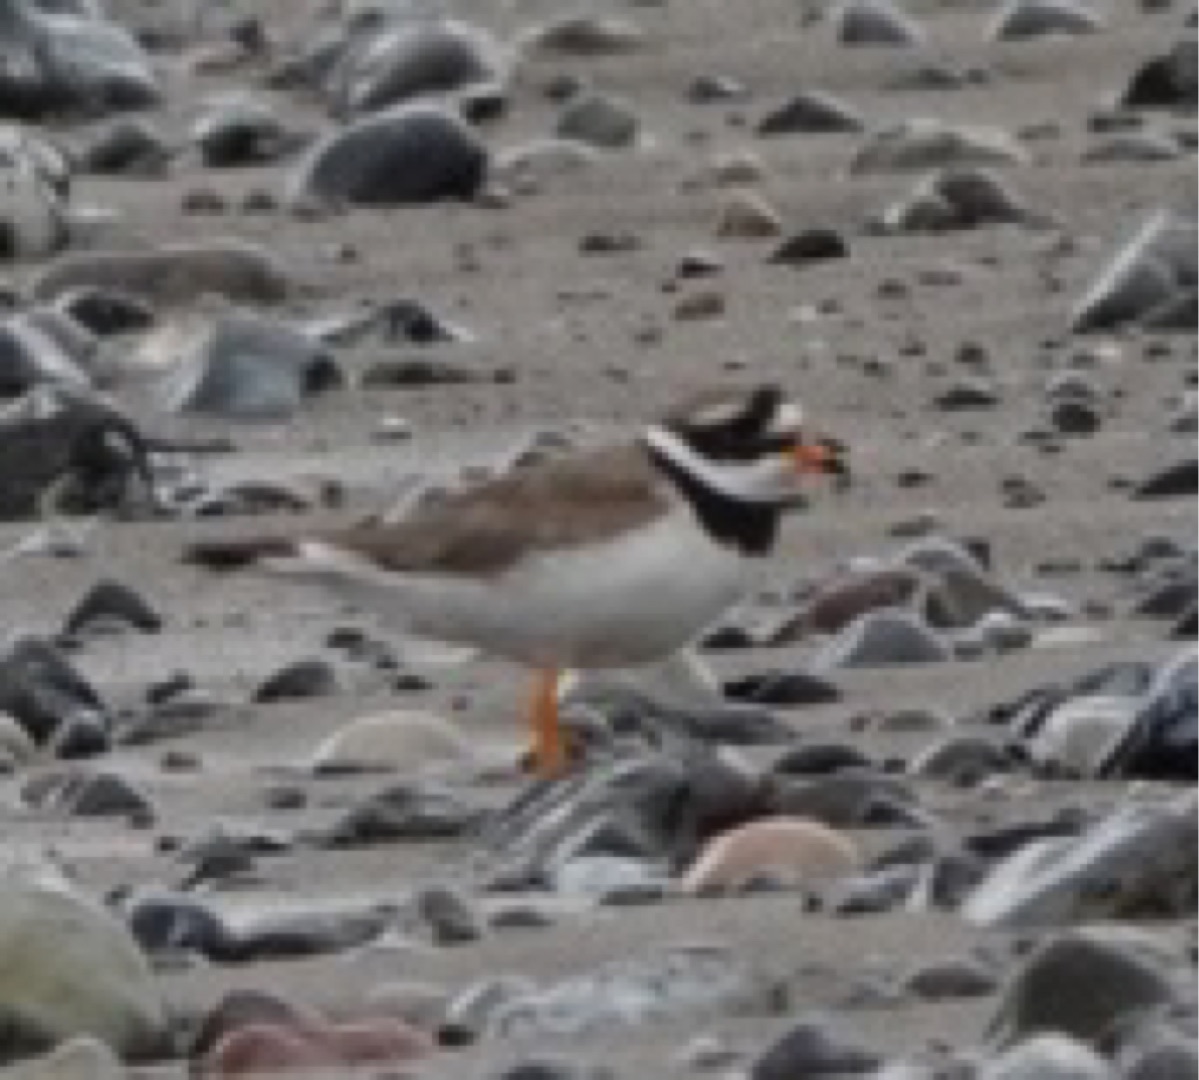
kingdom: Animalia
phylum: Chordata
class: Aves
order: Charadriiformes
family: Charadriidae
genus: Charadrius
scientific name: Charadrius hiaticula
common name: Stor præstekrave
